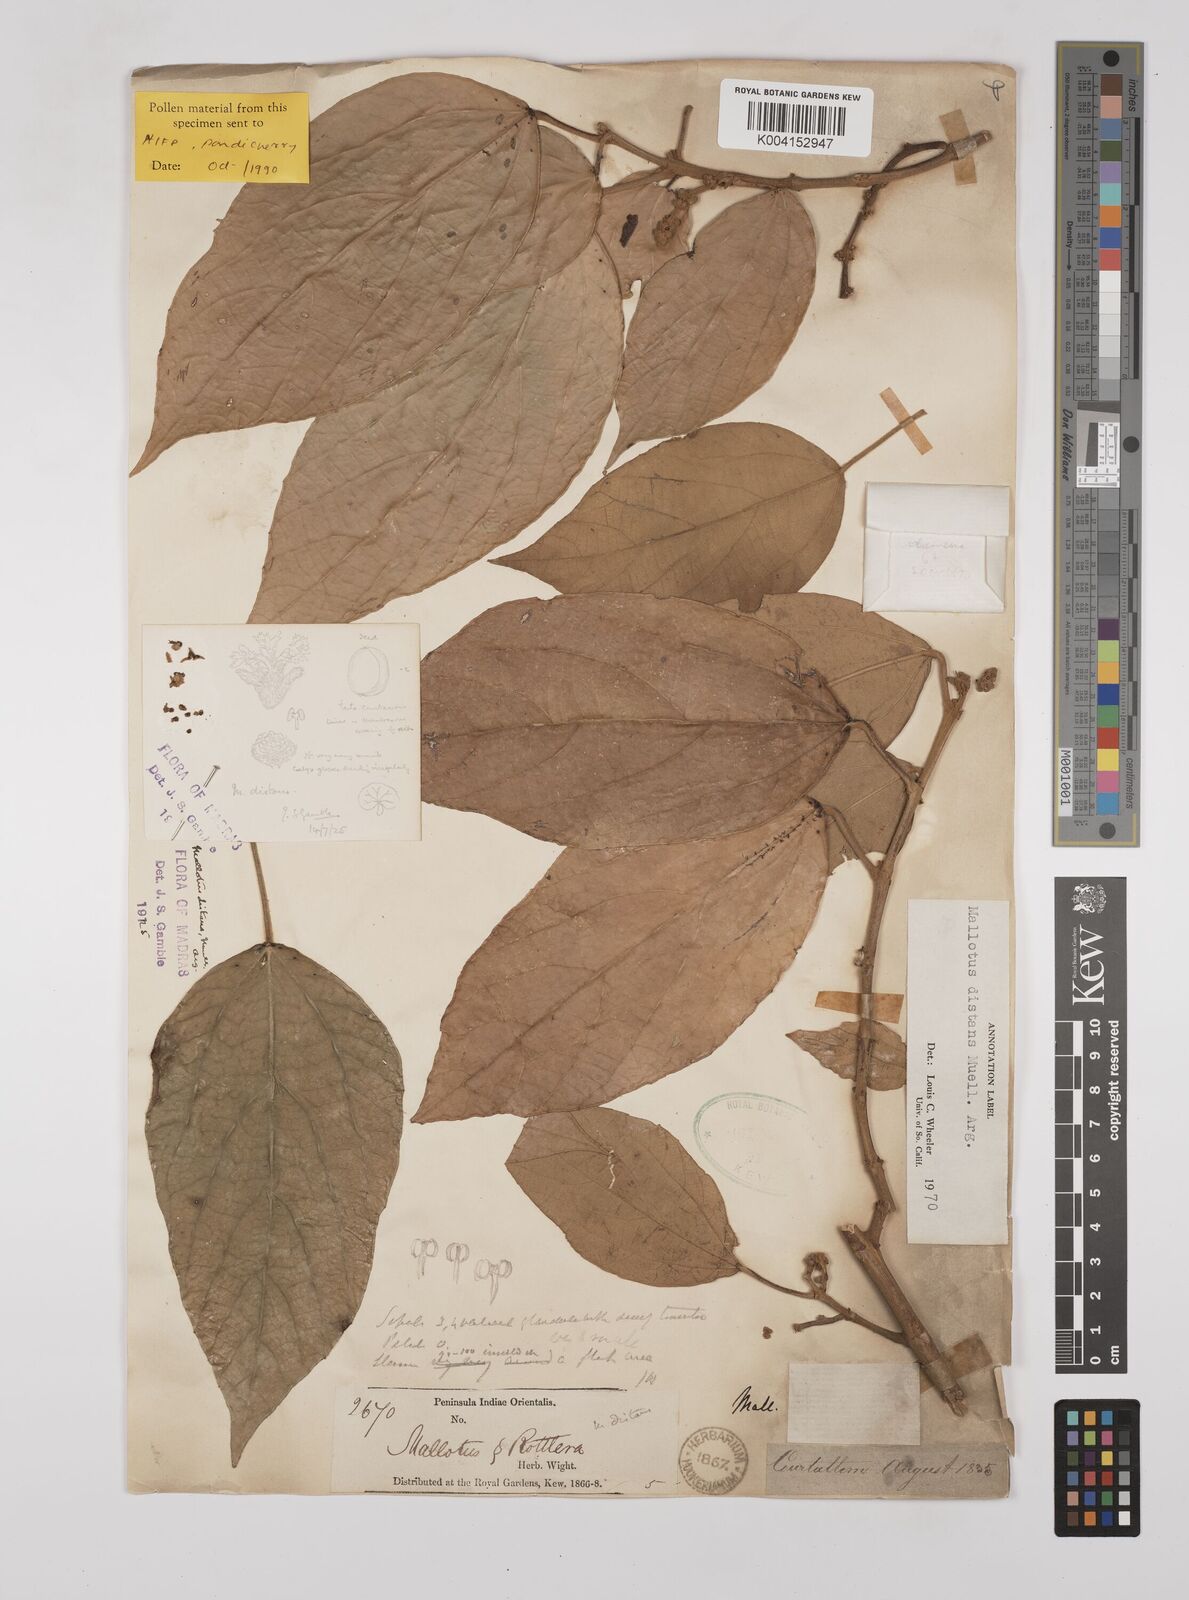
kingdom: Plantae
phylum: Tracheophyta
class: Magnoliopsida
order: Malpighiales
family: Euphorbiaceae
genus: Mallotus
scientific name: Mallotus distans
